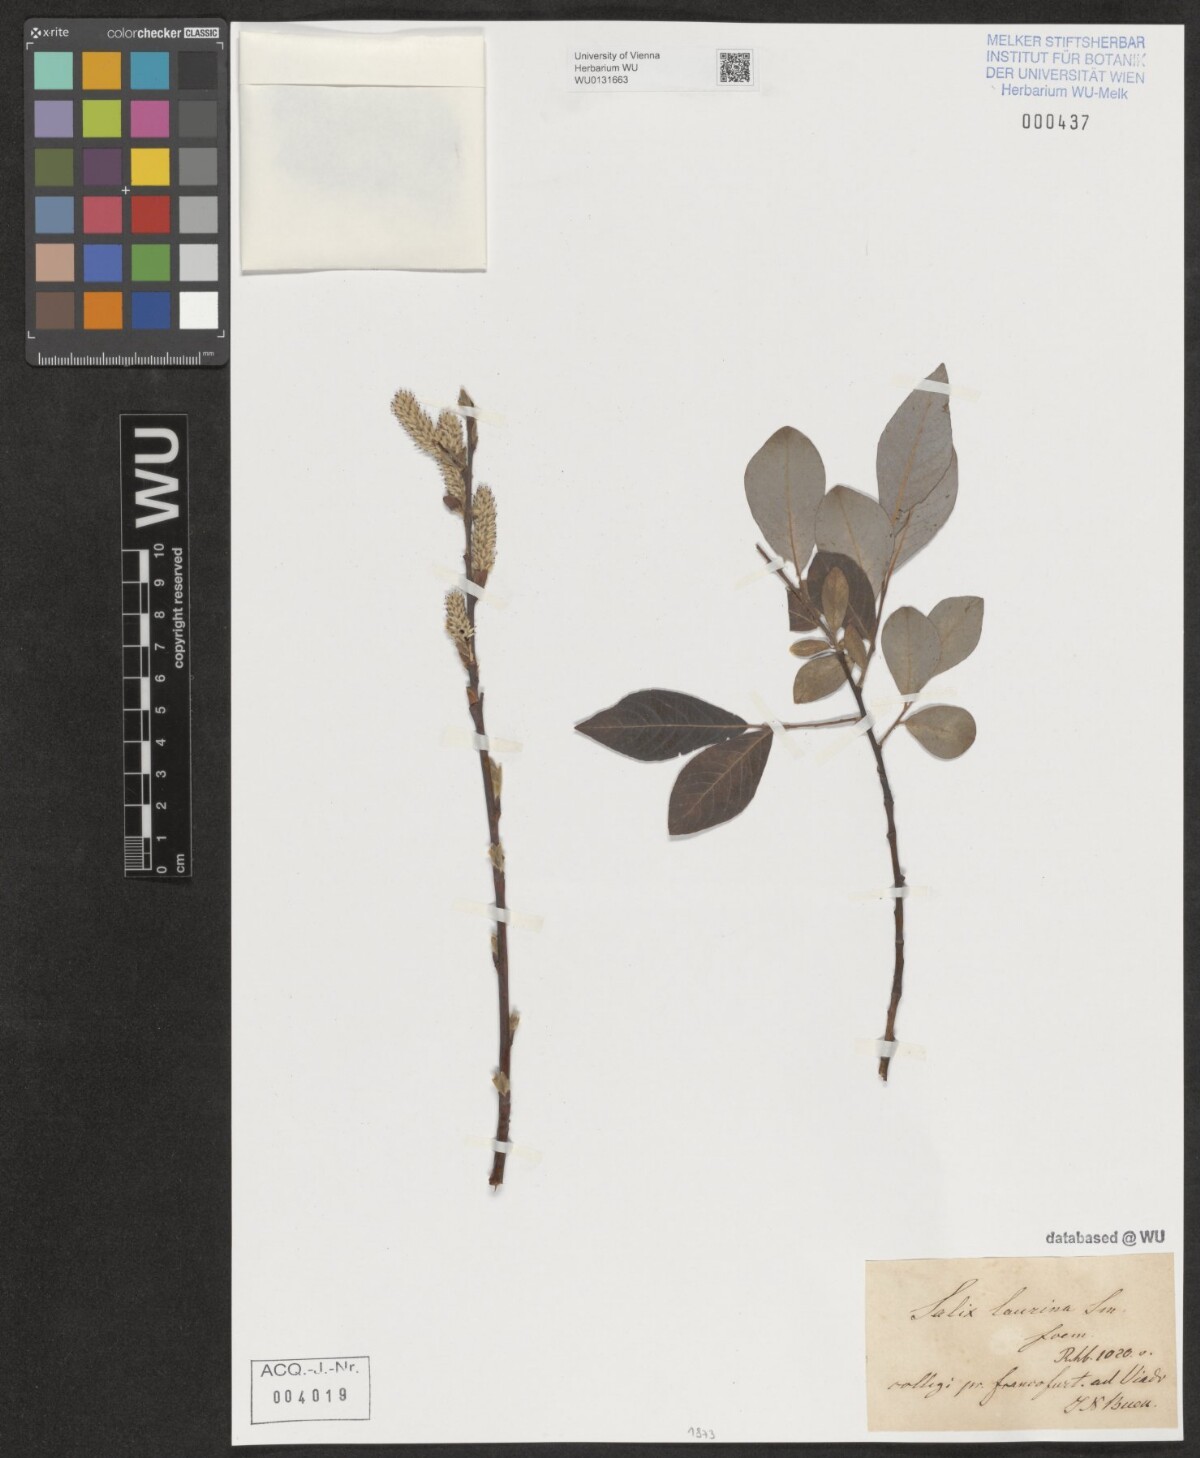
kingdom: Plantae
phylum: Tracheophyta
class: Magnoliopsida
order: Malpighiales
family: Salicaceae
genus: Salix
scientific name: Salix laurina
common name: Laurel-leaf willow
